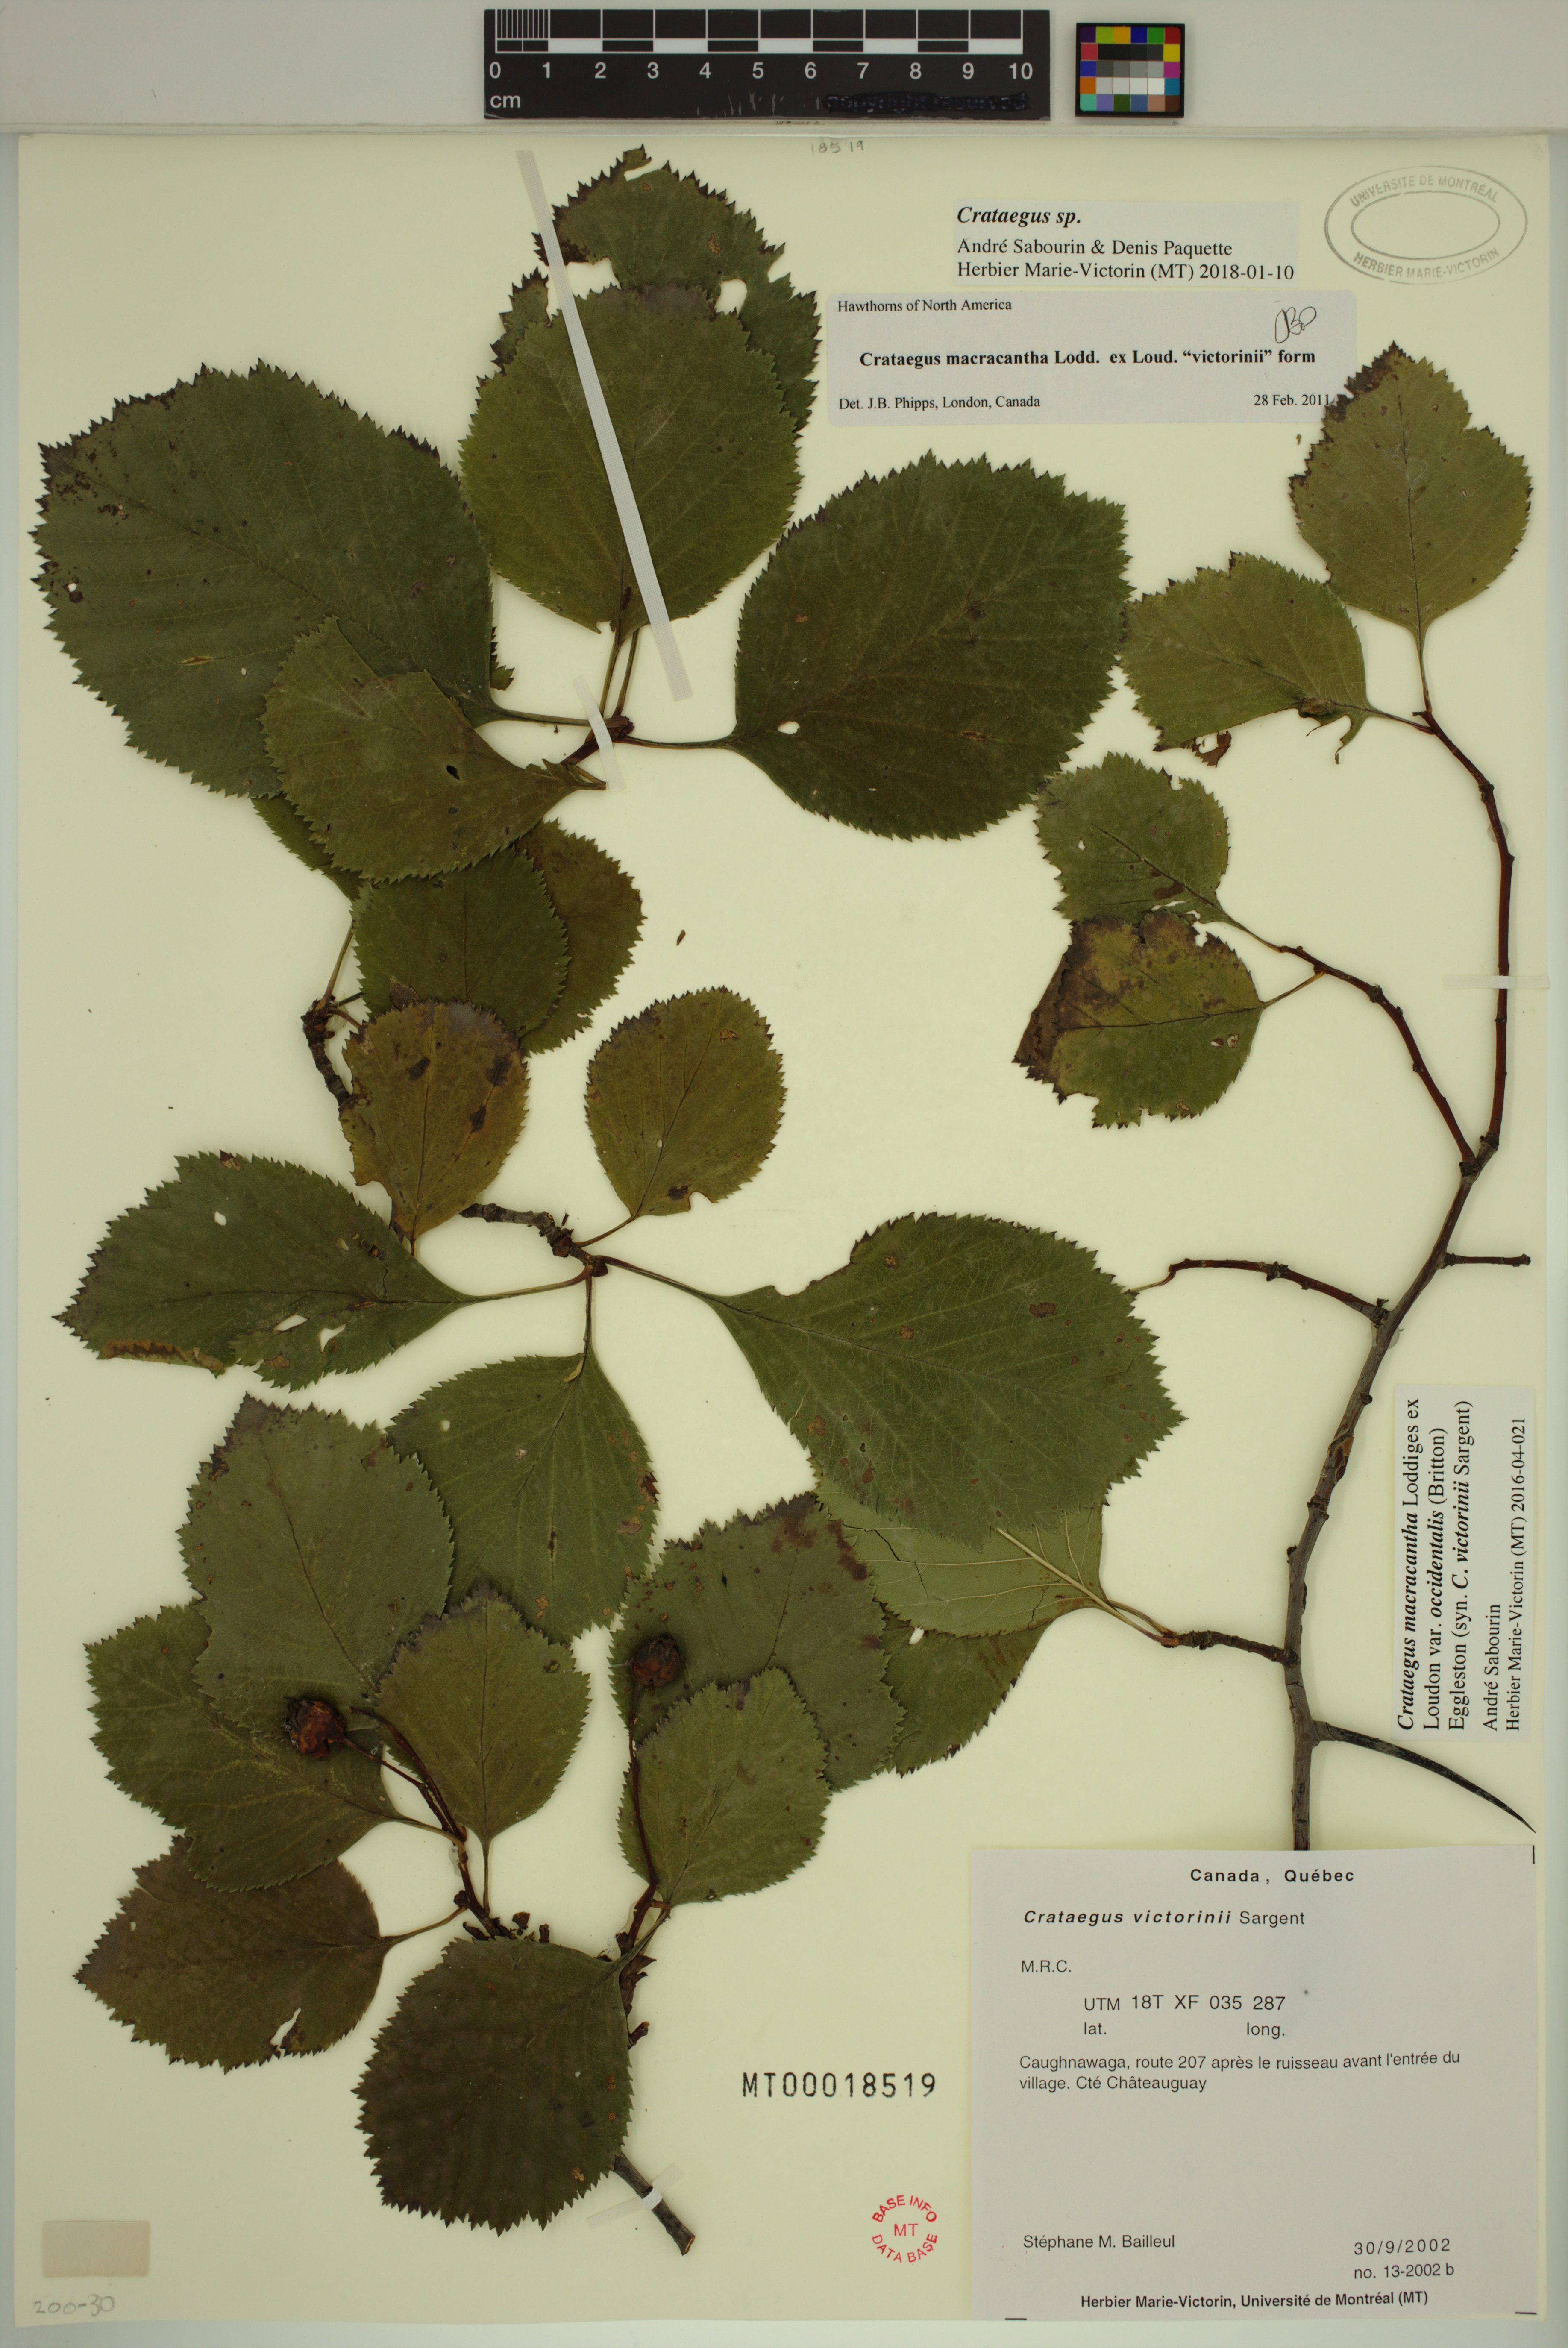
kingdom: Plantae
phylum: Tracheophyta
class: Magnoliopsida
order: Rosales
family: Rosaceae
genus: Crataegus
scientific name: Crataegus
